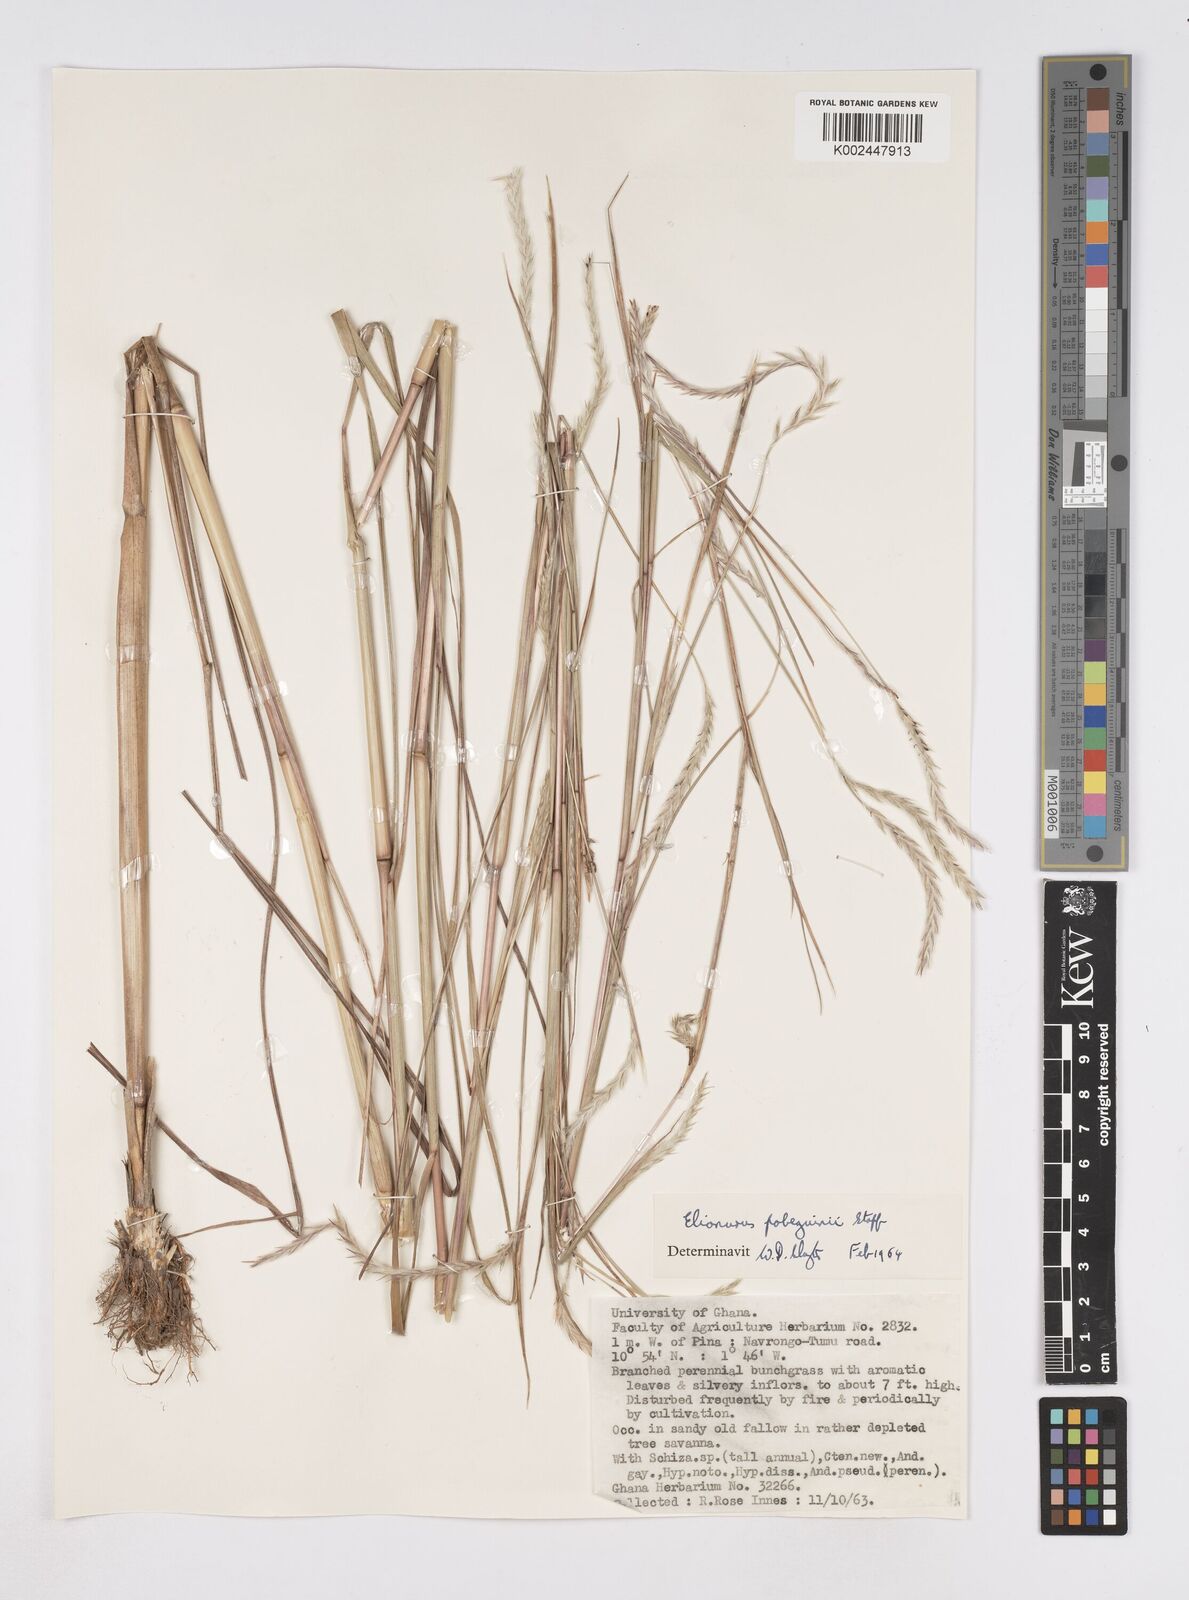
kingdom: Plantae
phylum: Tracheophyta
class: Liliopsida
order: Poales
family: Poaceae
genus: Elionurus
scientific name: Elionurus
